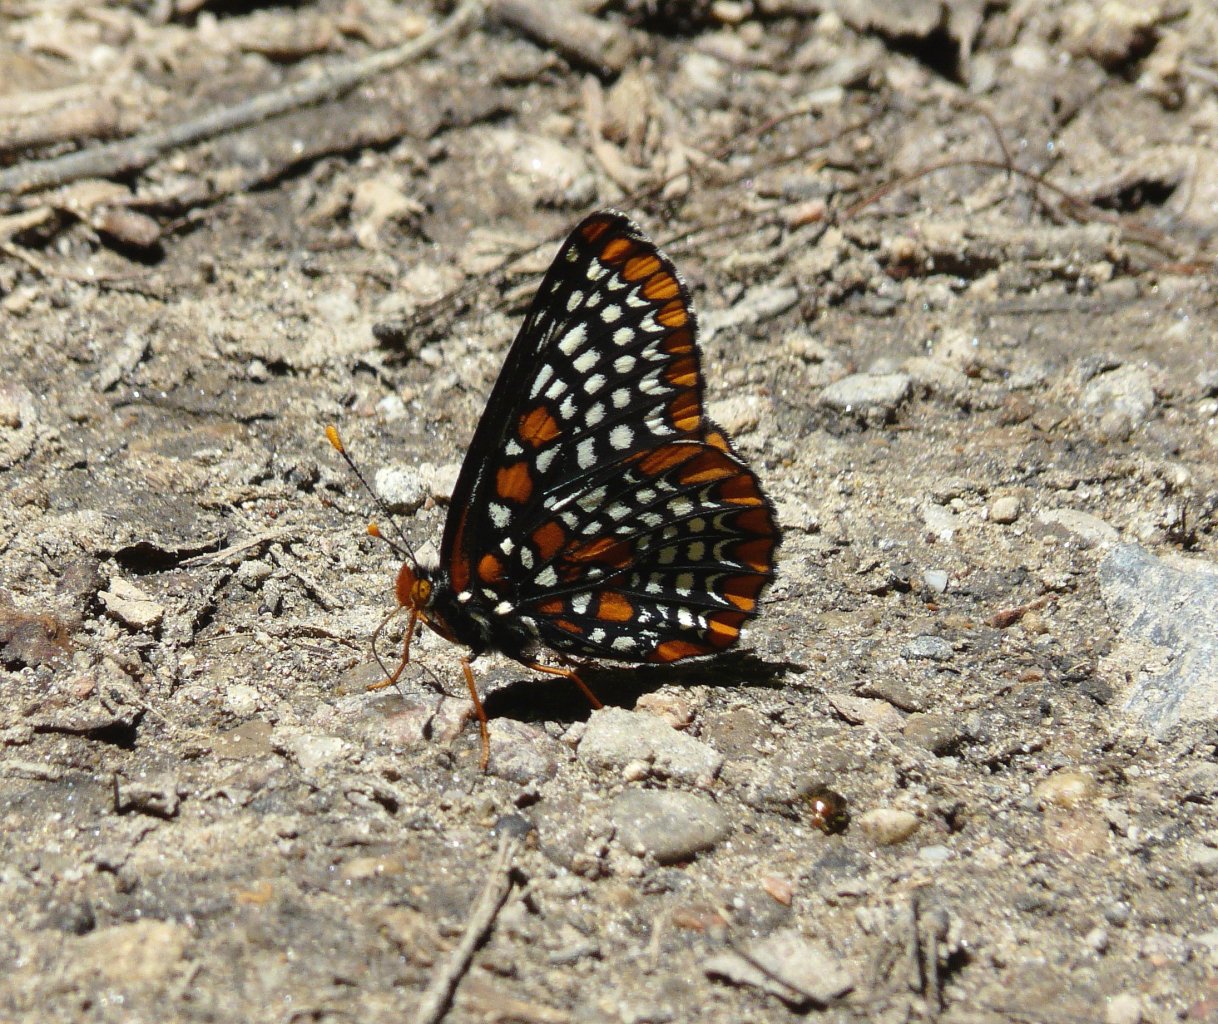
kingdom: Animalia
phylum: Arthropoda
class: Insecta
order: Lepidoptera
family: Nymphalidae
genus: Euphydryas
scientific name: Euphydryas phaeton
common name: Baltimore Checkerspot
